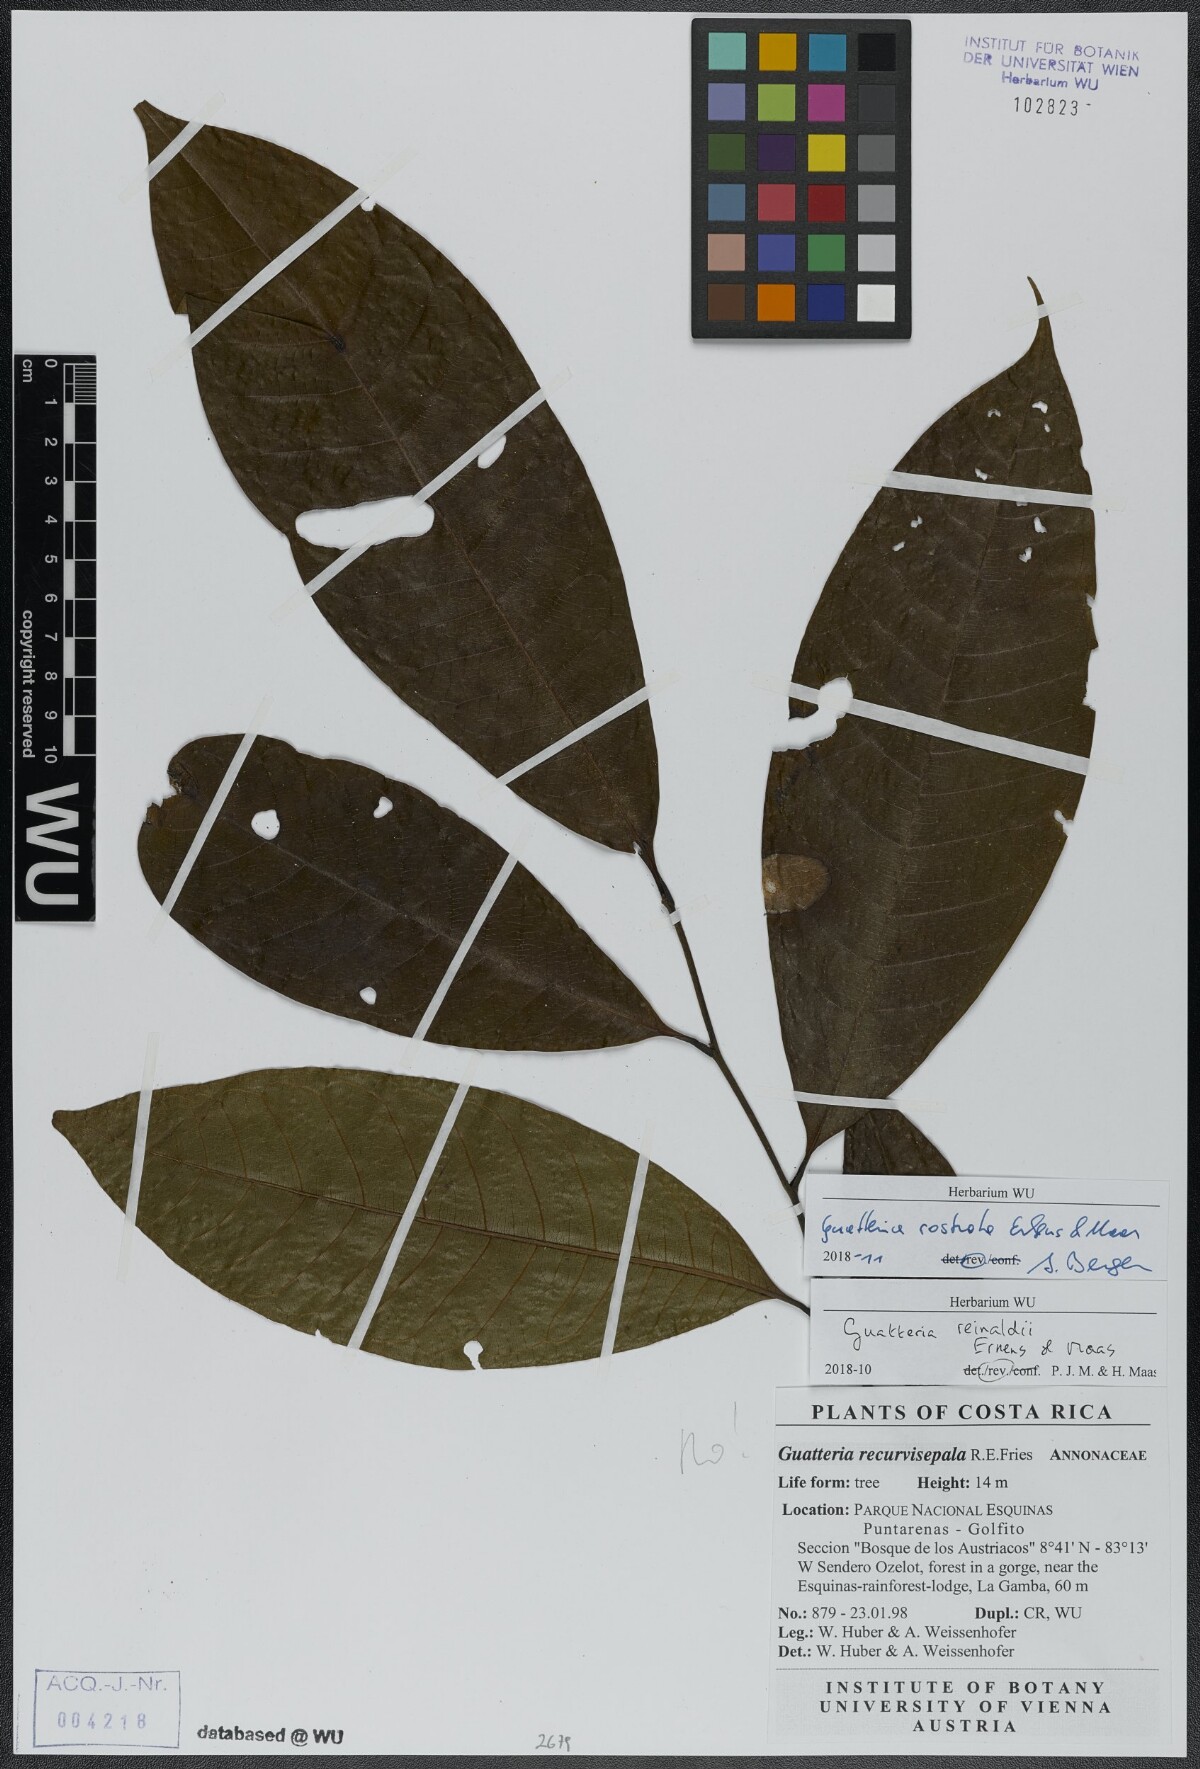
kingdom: Plantae
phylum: Tracheophyta
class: Magnoliopsida
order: Magnoliales
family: Annonaceae
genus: Guatteria
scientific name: Guatteria reinaldii
